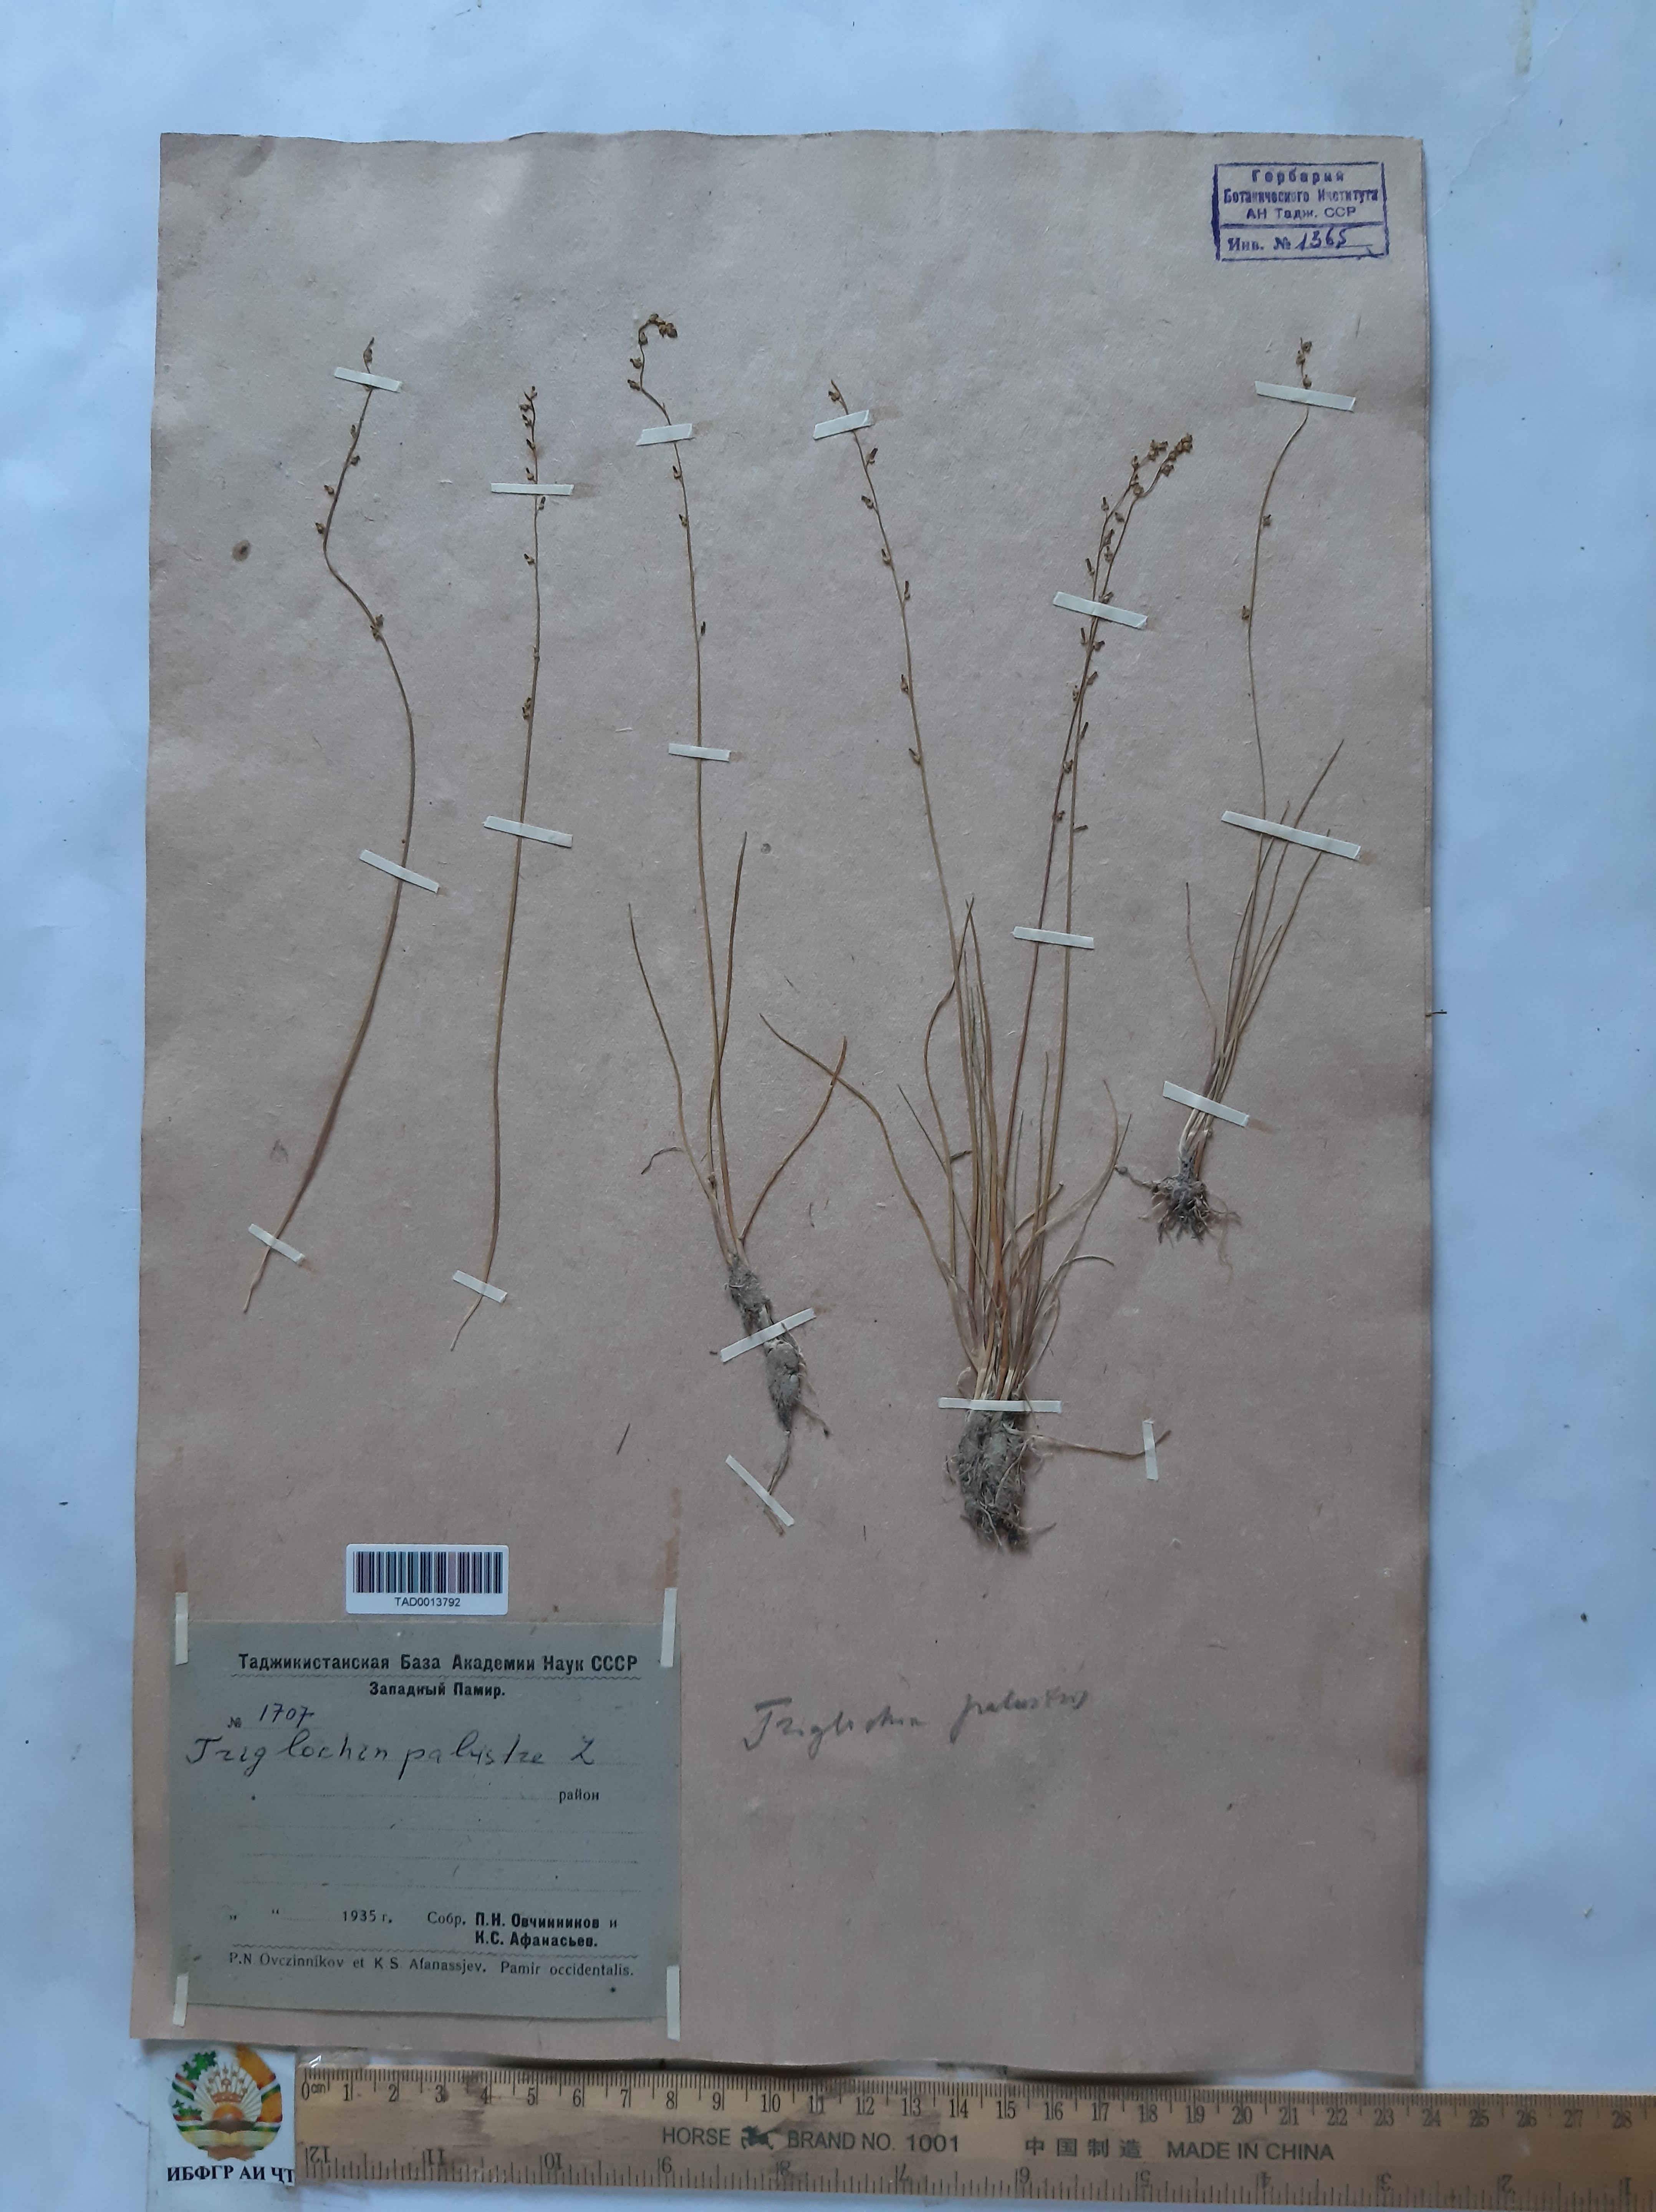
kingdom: Plantae
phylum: Tracheophyta
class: Liliopsida
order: Alismatales
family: Juncaginaceae
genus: Triglochin
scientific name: Triglochin palustris
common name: Marsh arrowgrass
